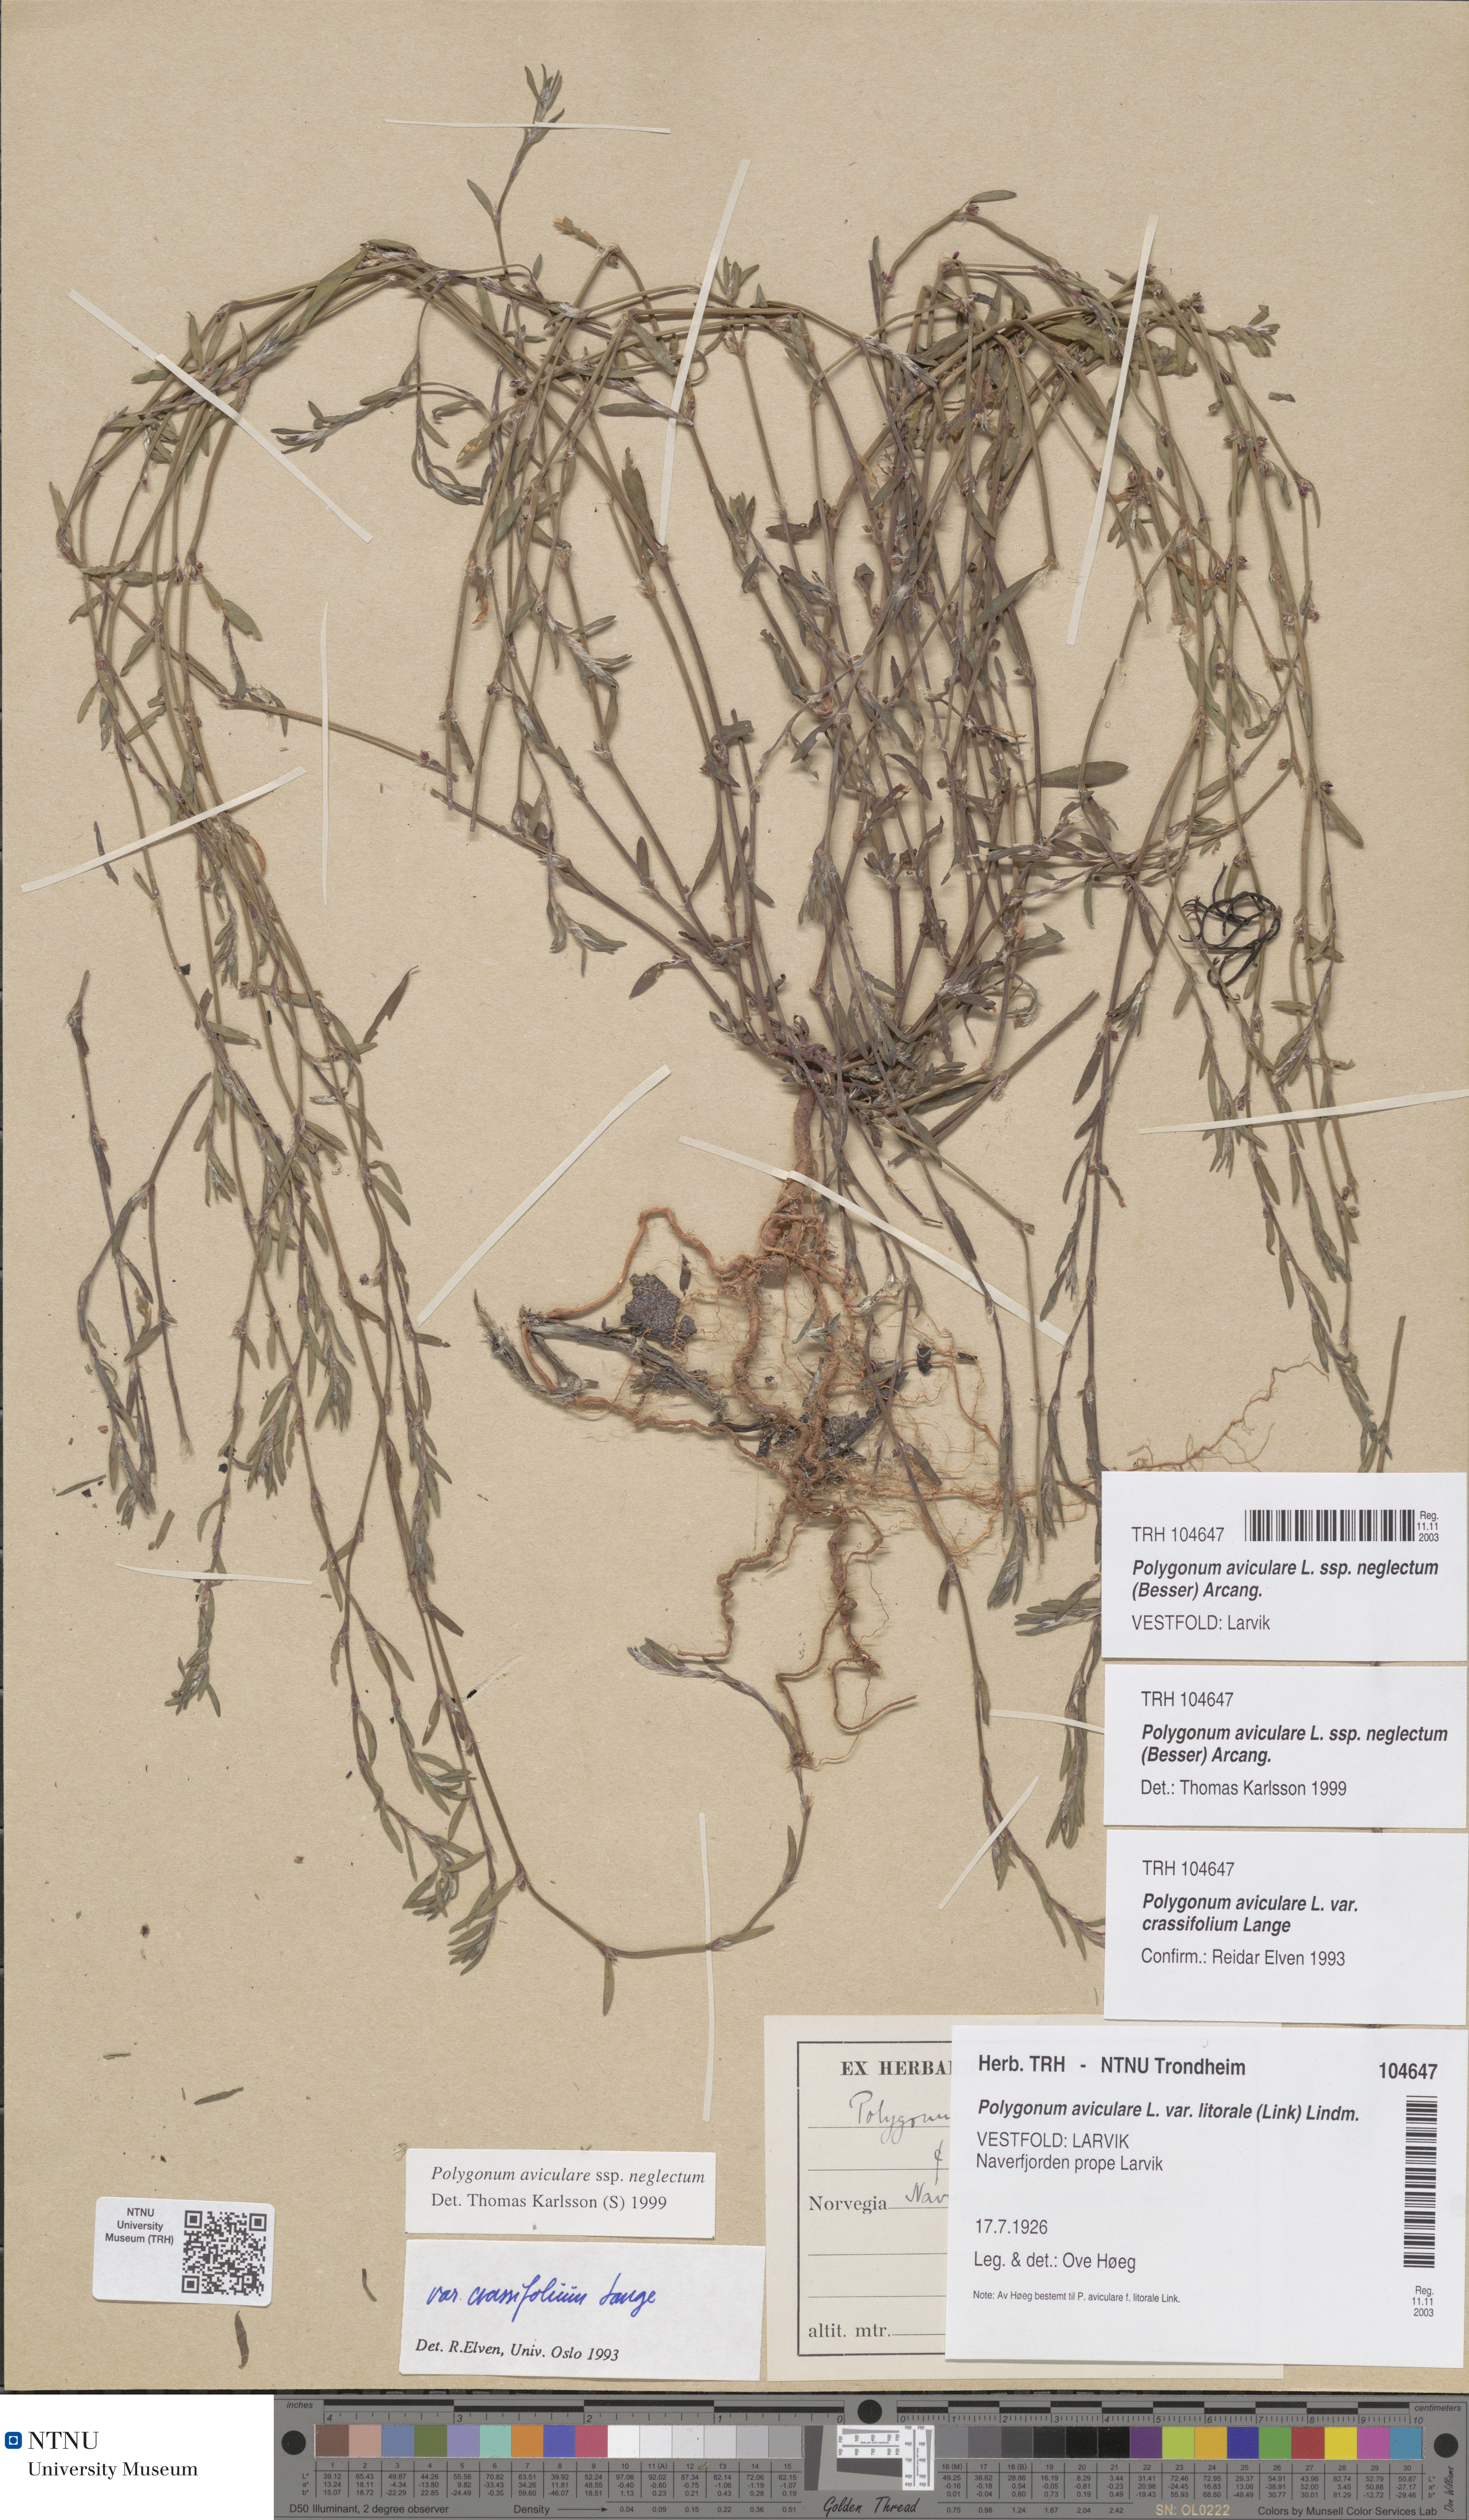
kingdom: Plantae
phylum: Tracheophyta
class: Magnoliopsida
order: Caryophyllales
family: Polygonaceae
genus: Polygonum
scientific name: Polygonum aviculare
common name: Prostrate knotweed
